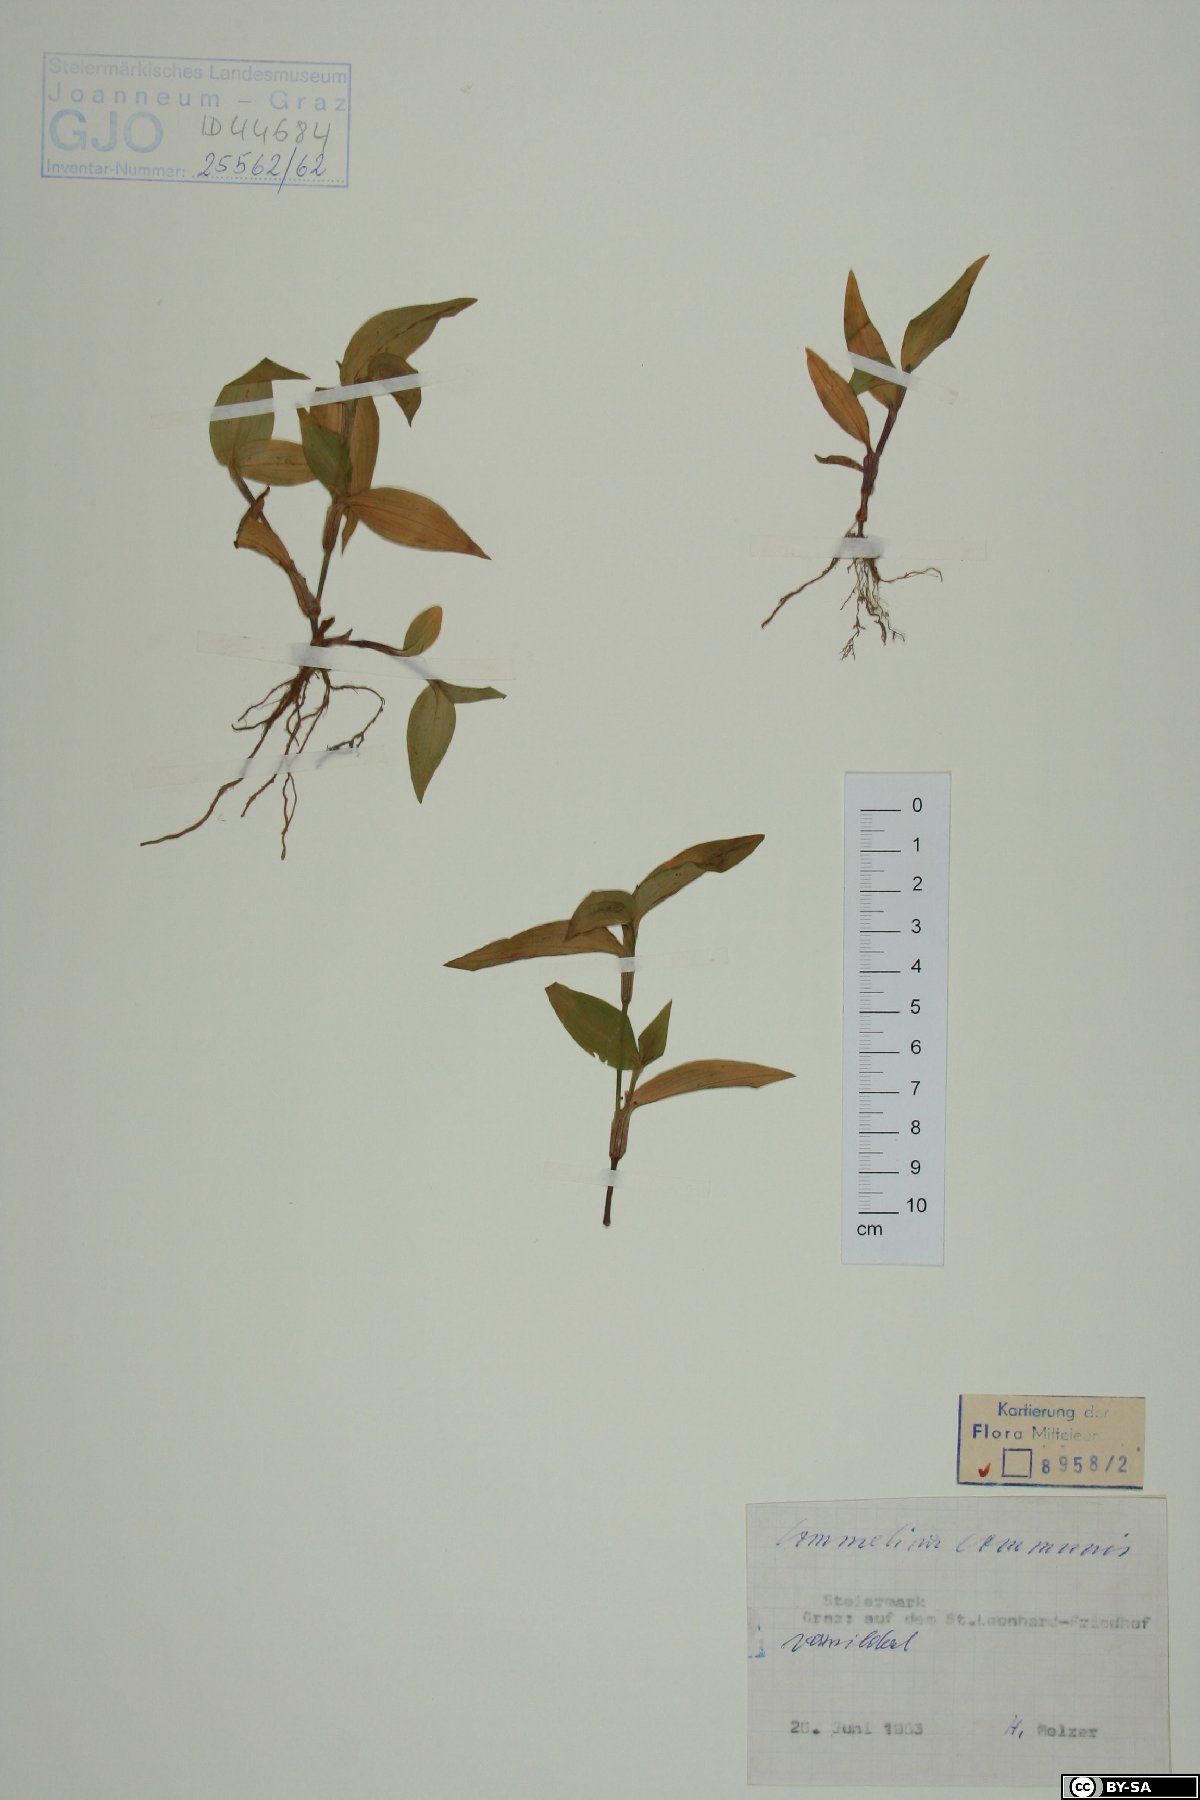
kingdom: Plantae
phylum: Tracheophyta
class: Liliopsida
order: Commelinales
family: Commelinaceae
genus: Commelina
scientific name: Commelina communis
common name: Asiatic dayflower
